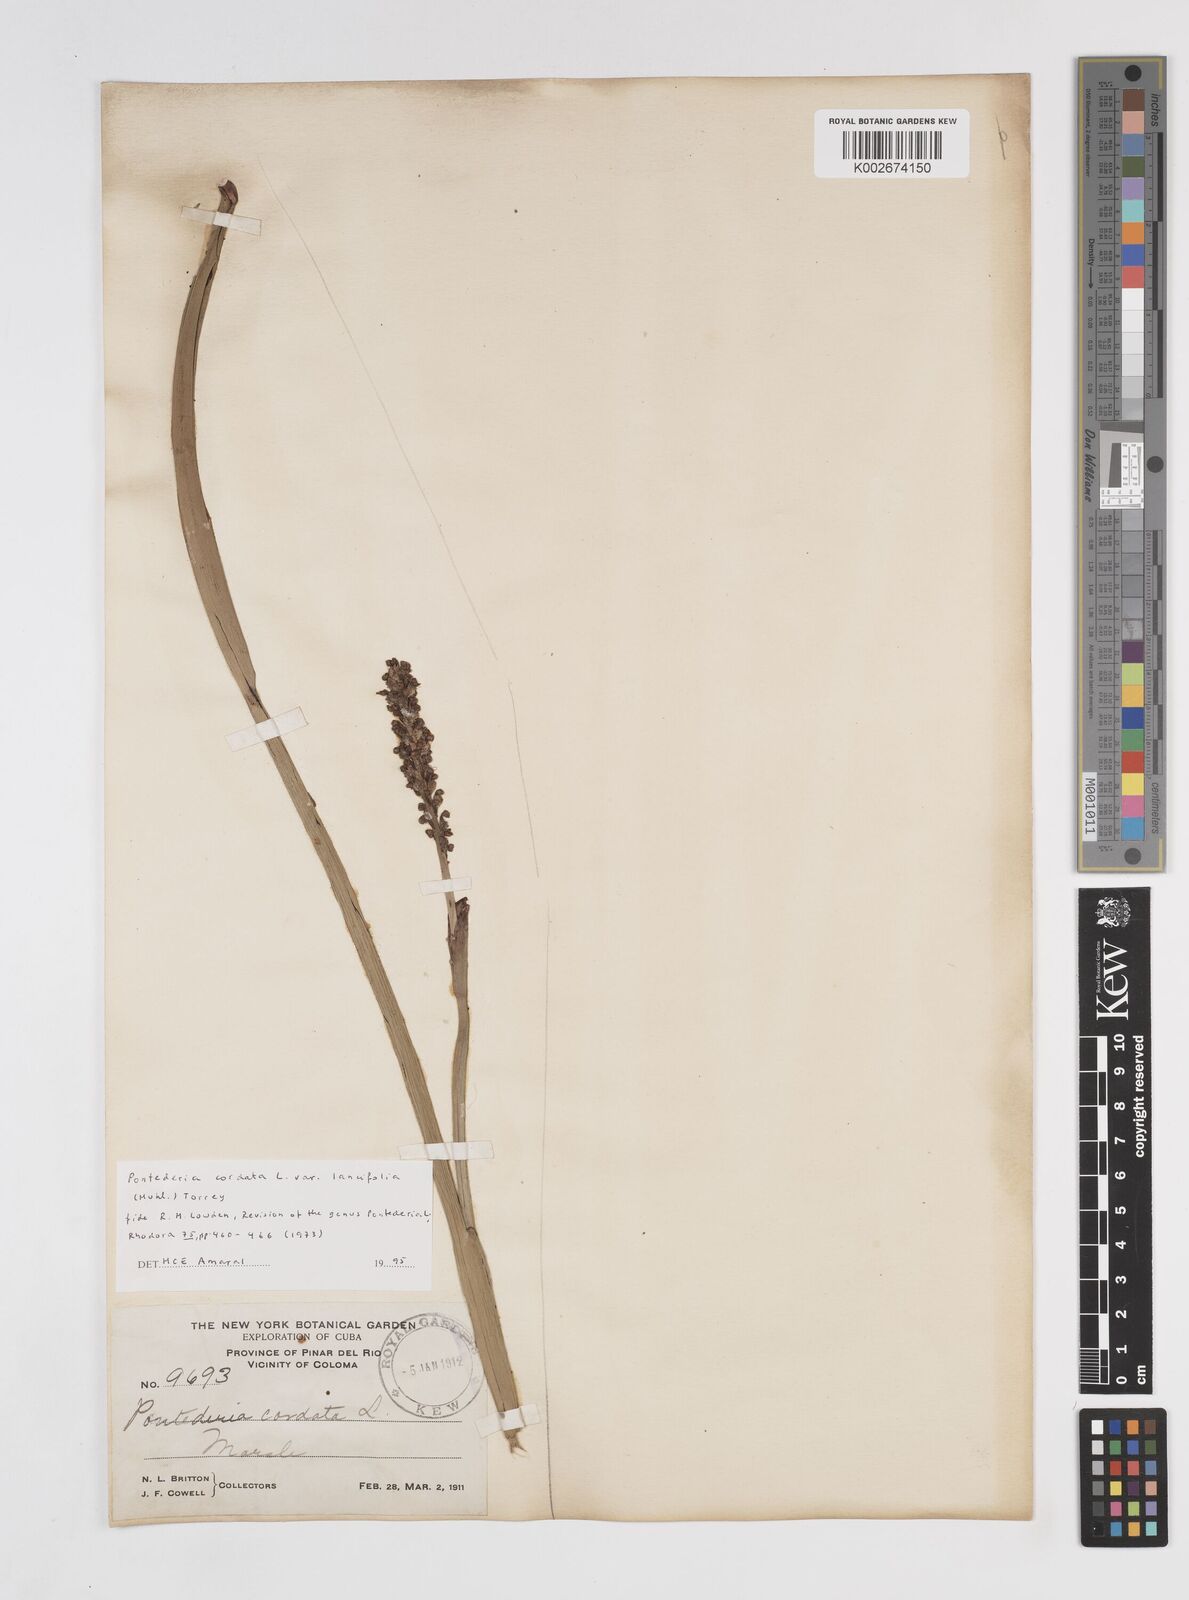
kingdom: Plantae
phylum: Tracheophyta
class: Liliopsida
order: Commelinales
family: Pontederiaceae
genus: Pontederia
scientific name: Pontederia
